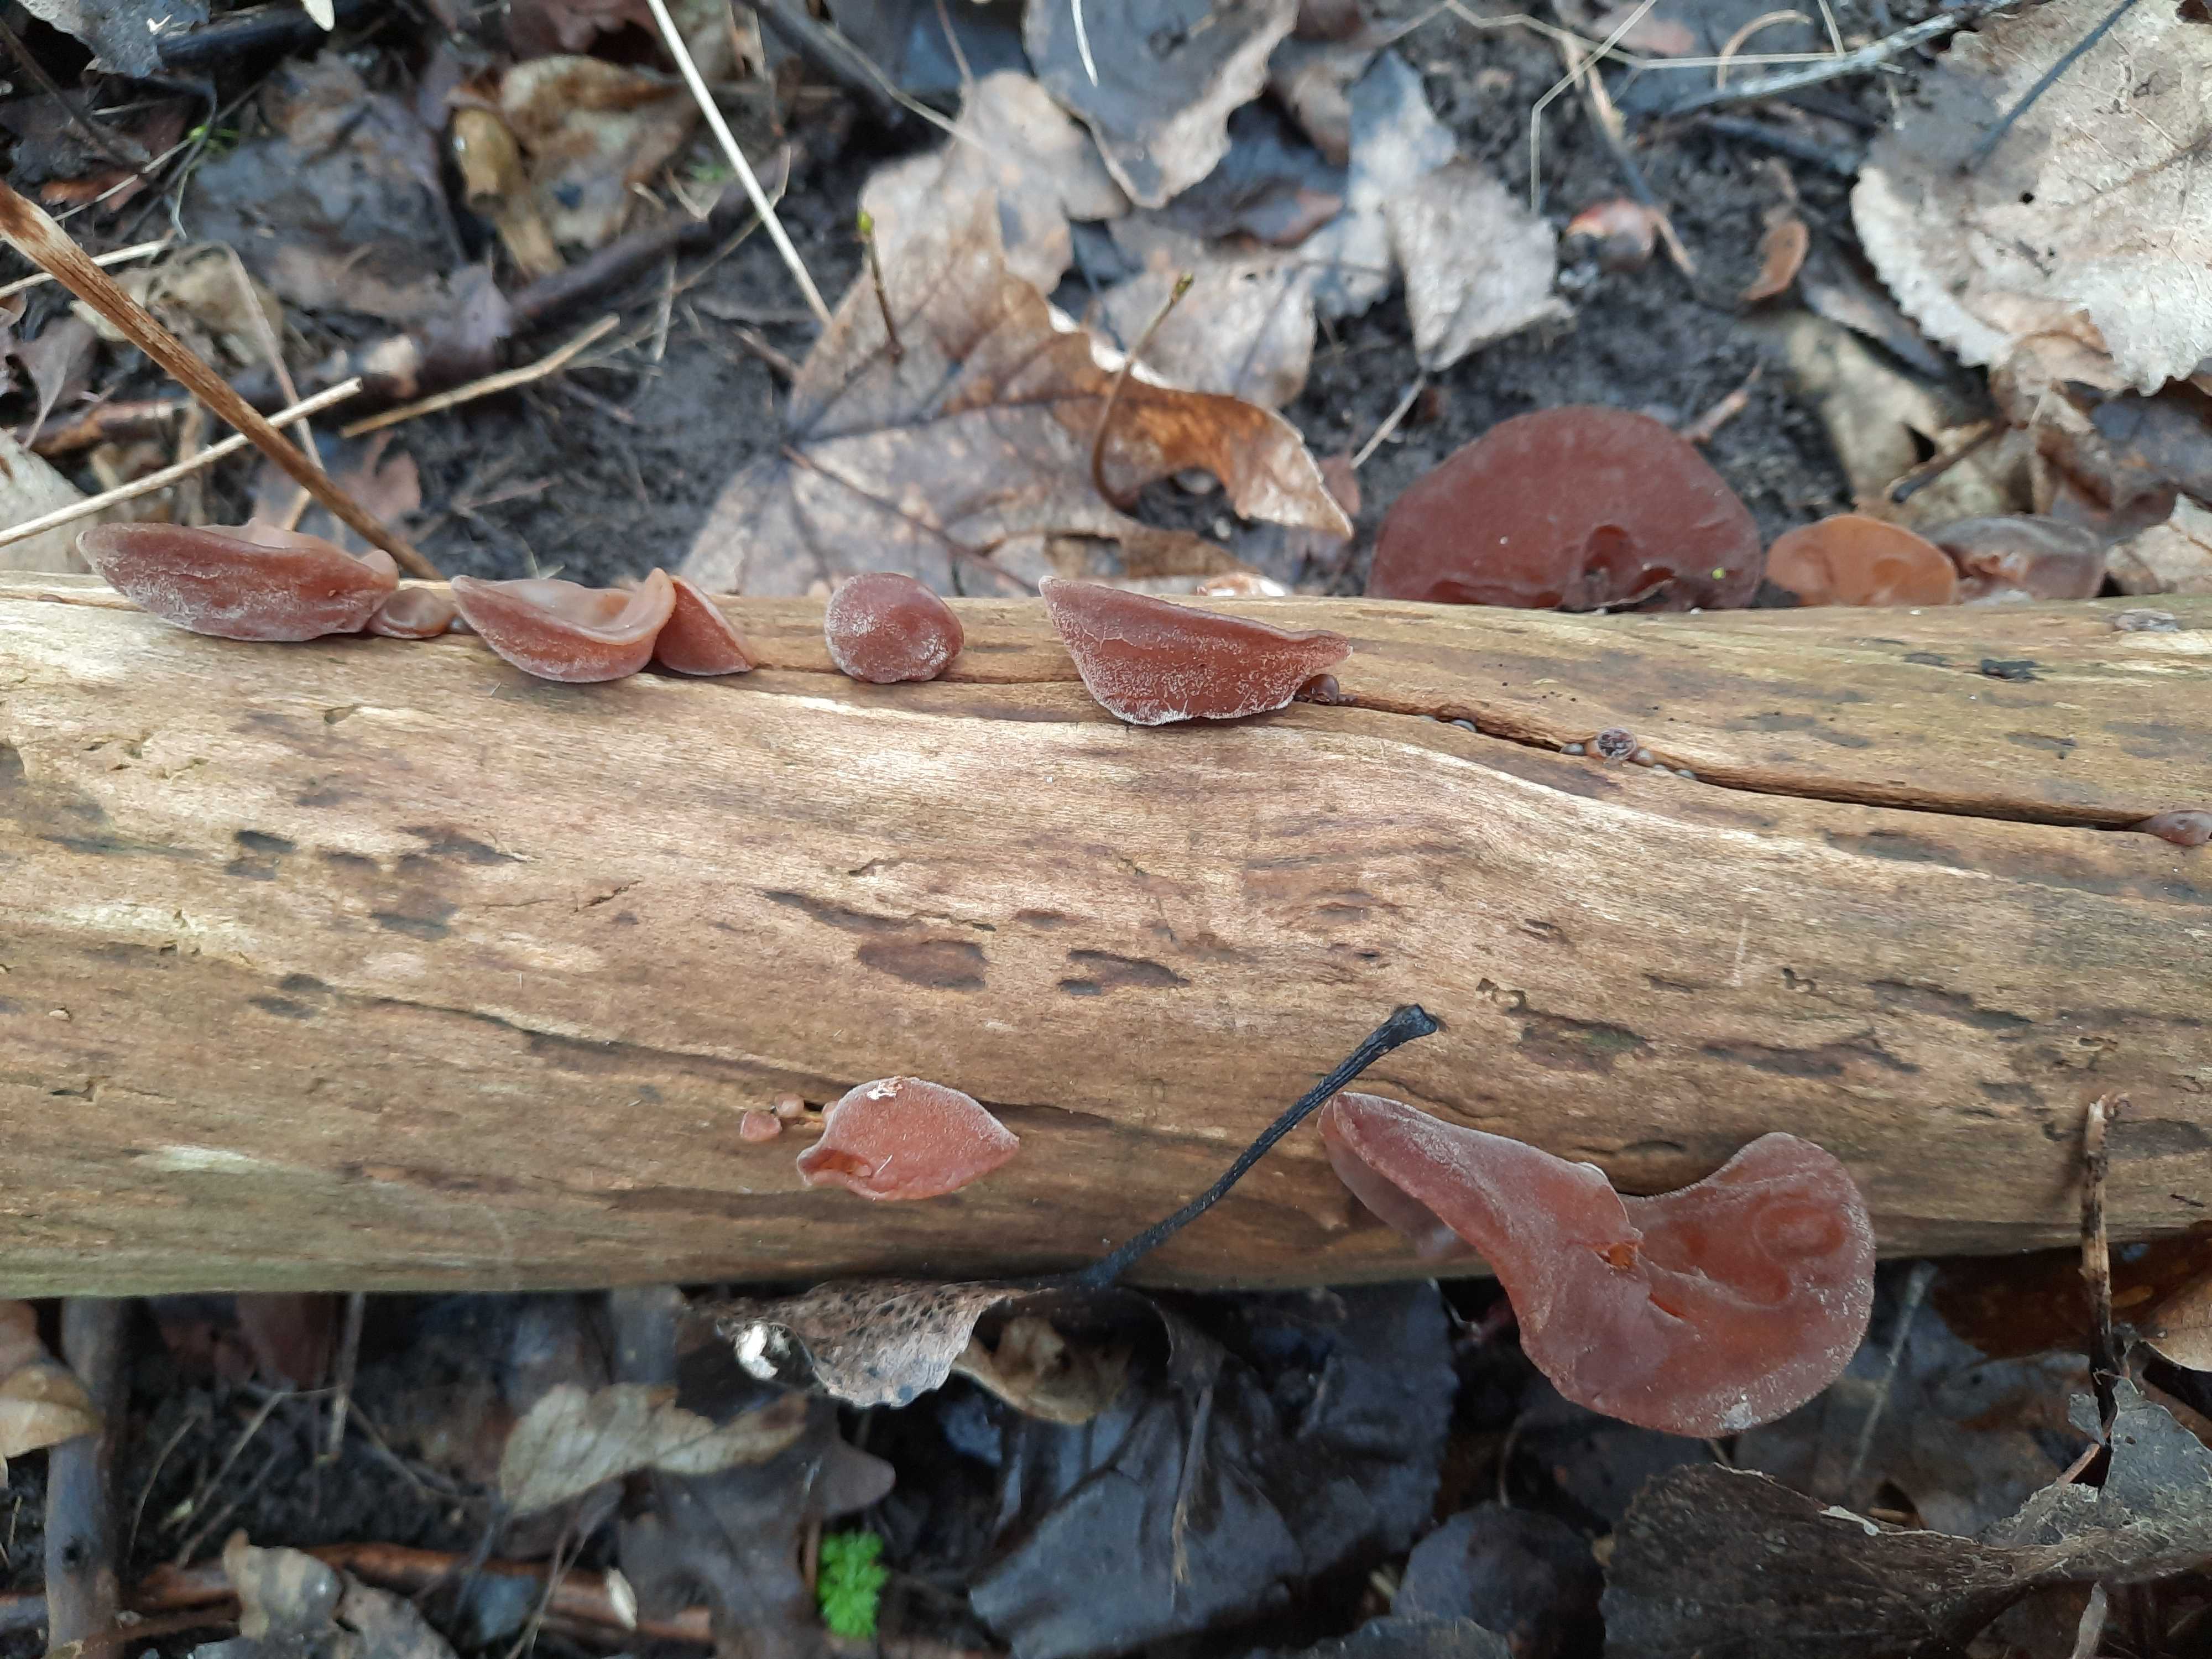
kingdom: Fungi
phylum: Basidiomycota
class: Agaricomycetes
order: Auriculariales
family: Auriculariaceae
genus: Auricularia
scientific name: Auricularia auricula-judae
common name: almindelig judasøre
